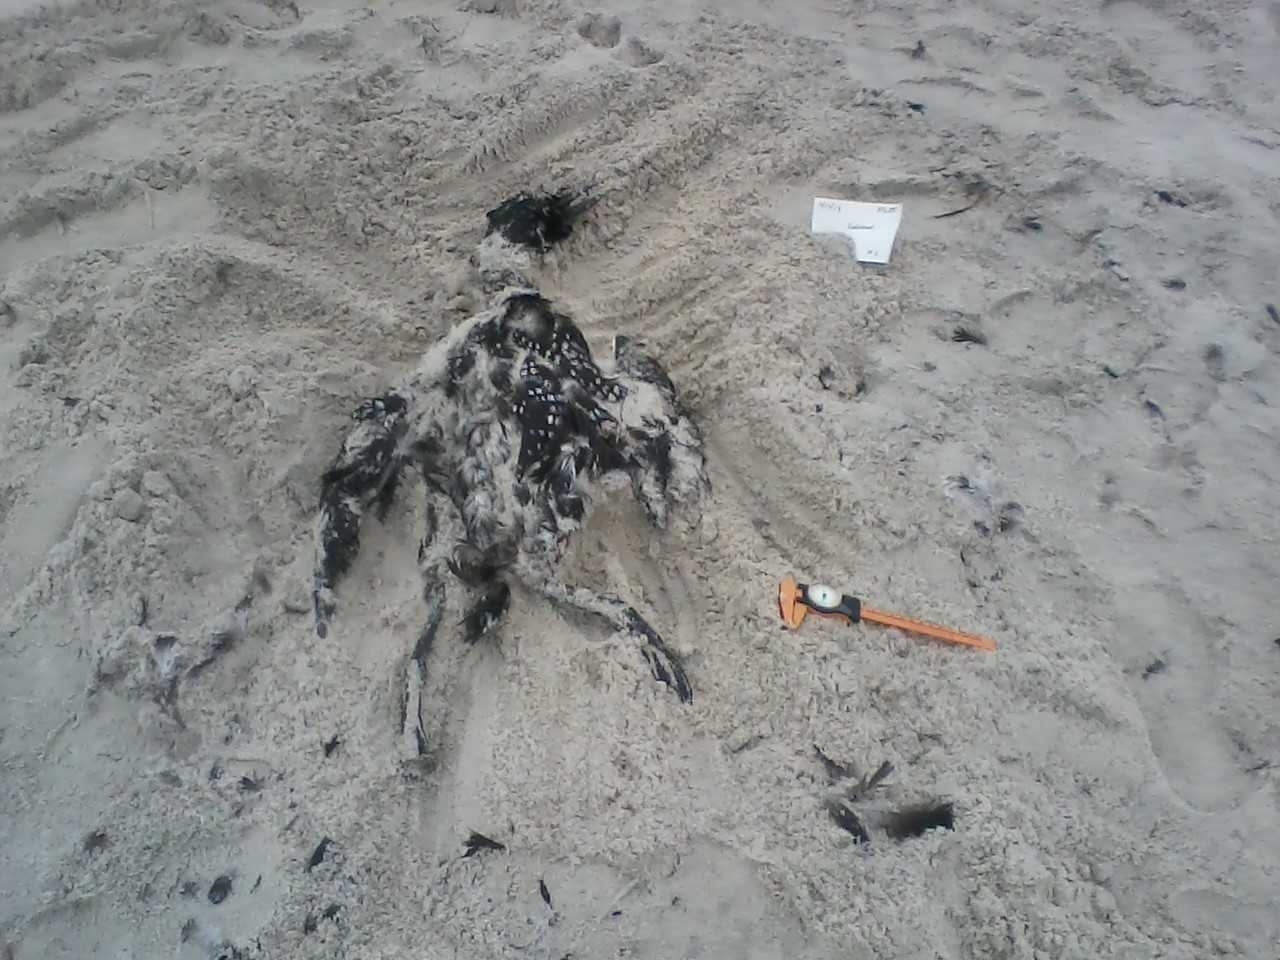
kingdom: Animalia
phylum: Chordata
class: Aves
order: Charadriiformes
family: Scolopacidae
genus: Tringa
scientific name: Tringa
